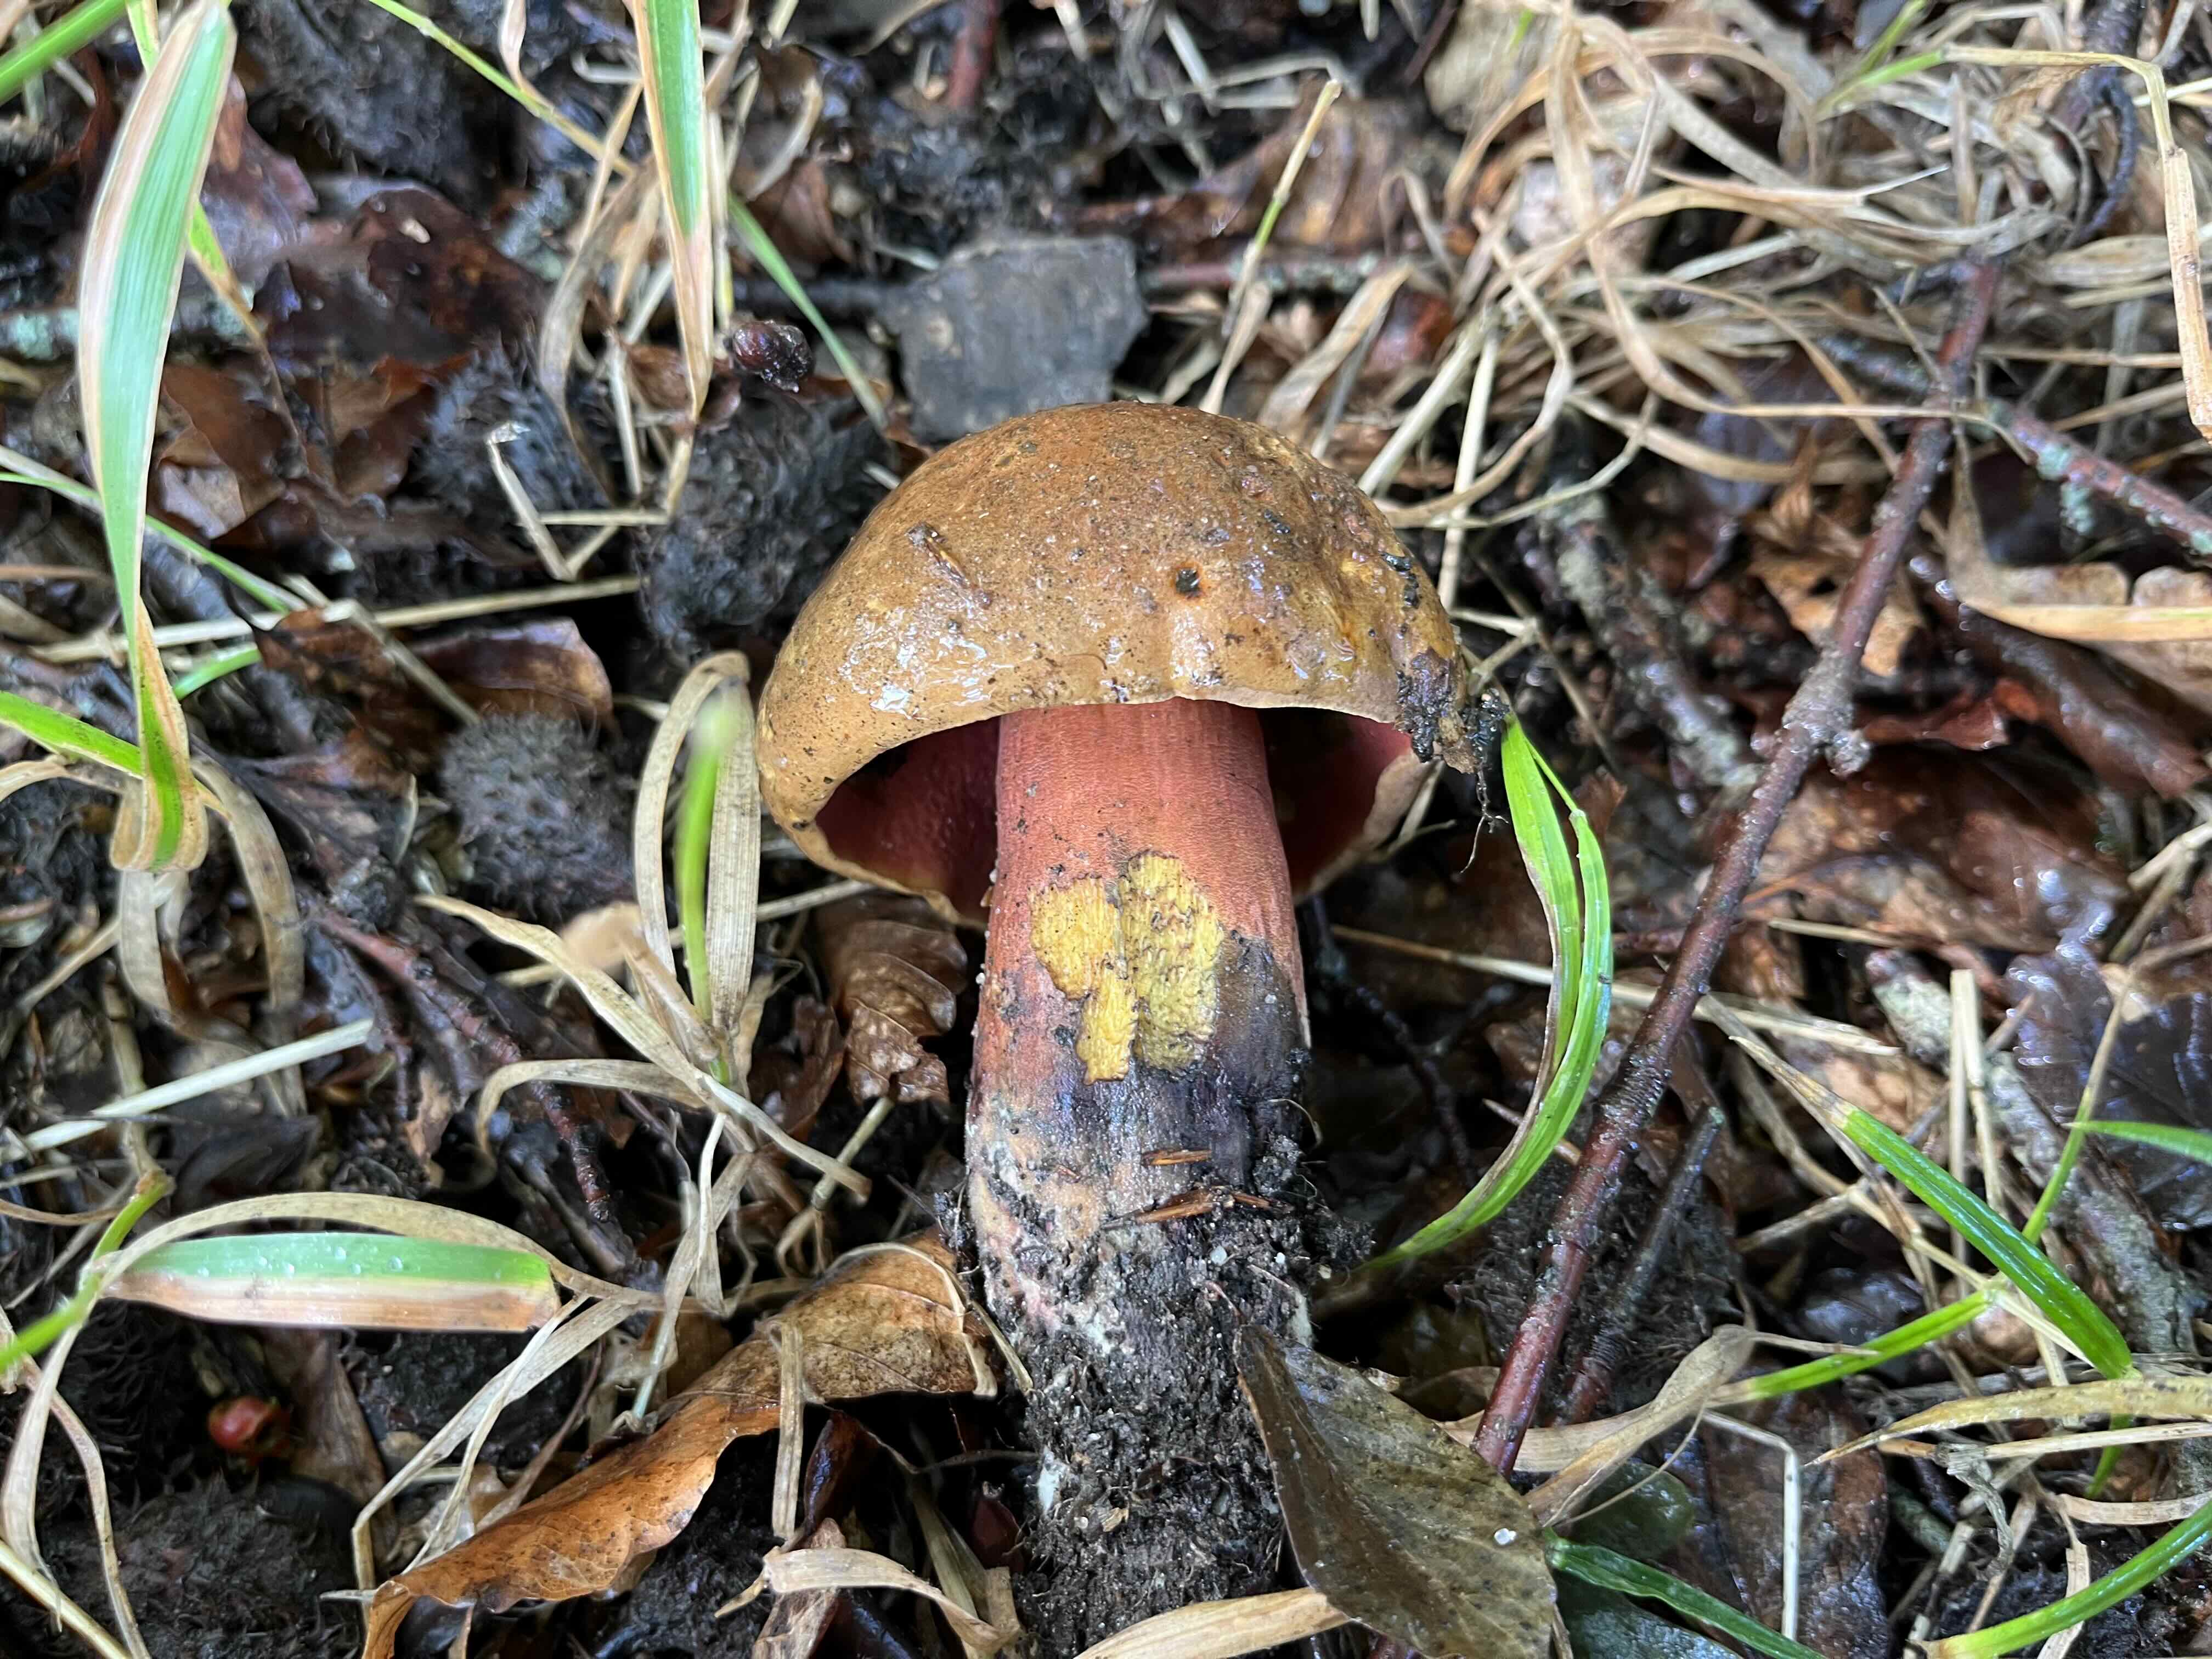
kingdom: Fungi
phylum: Basidiomycota
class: Agaricomycetes
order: Boletales
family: Boletaceae
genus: Neoboletus
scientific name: Neoboletus erythropus
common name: punktstokket indigorørhat
